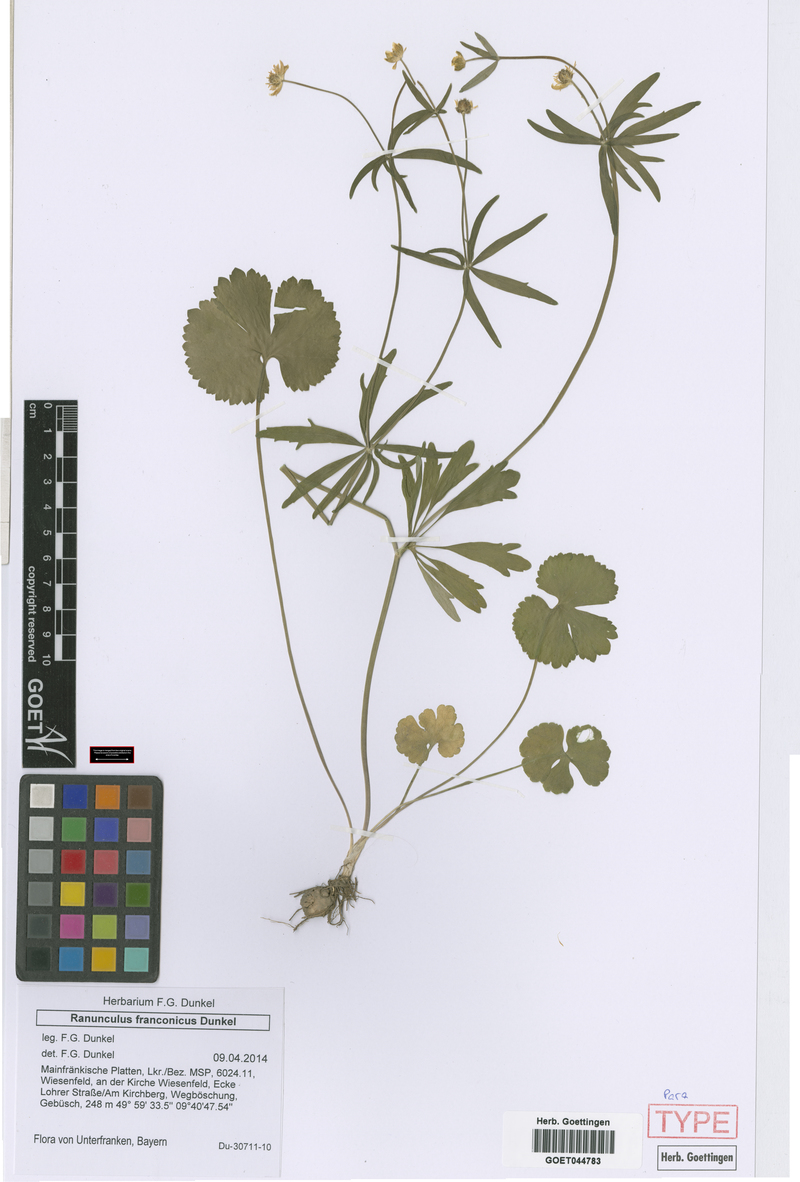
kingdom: Plantae
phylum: Tracheophyta
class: Magnoliopsida
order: Ranunculales
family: Ranunculaceae
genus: Ranunculus
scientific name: Ranunculus franconicus
